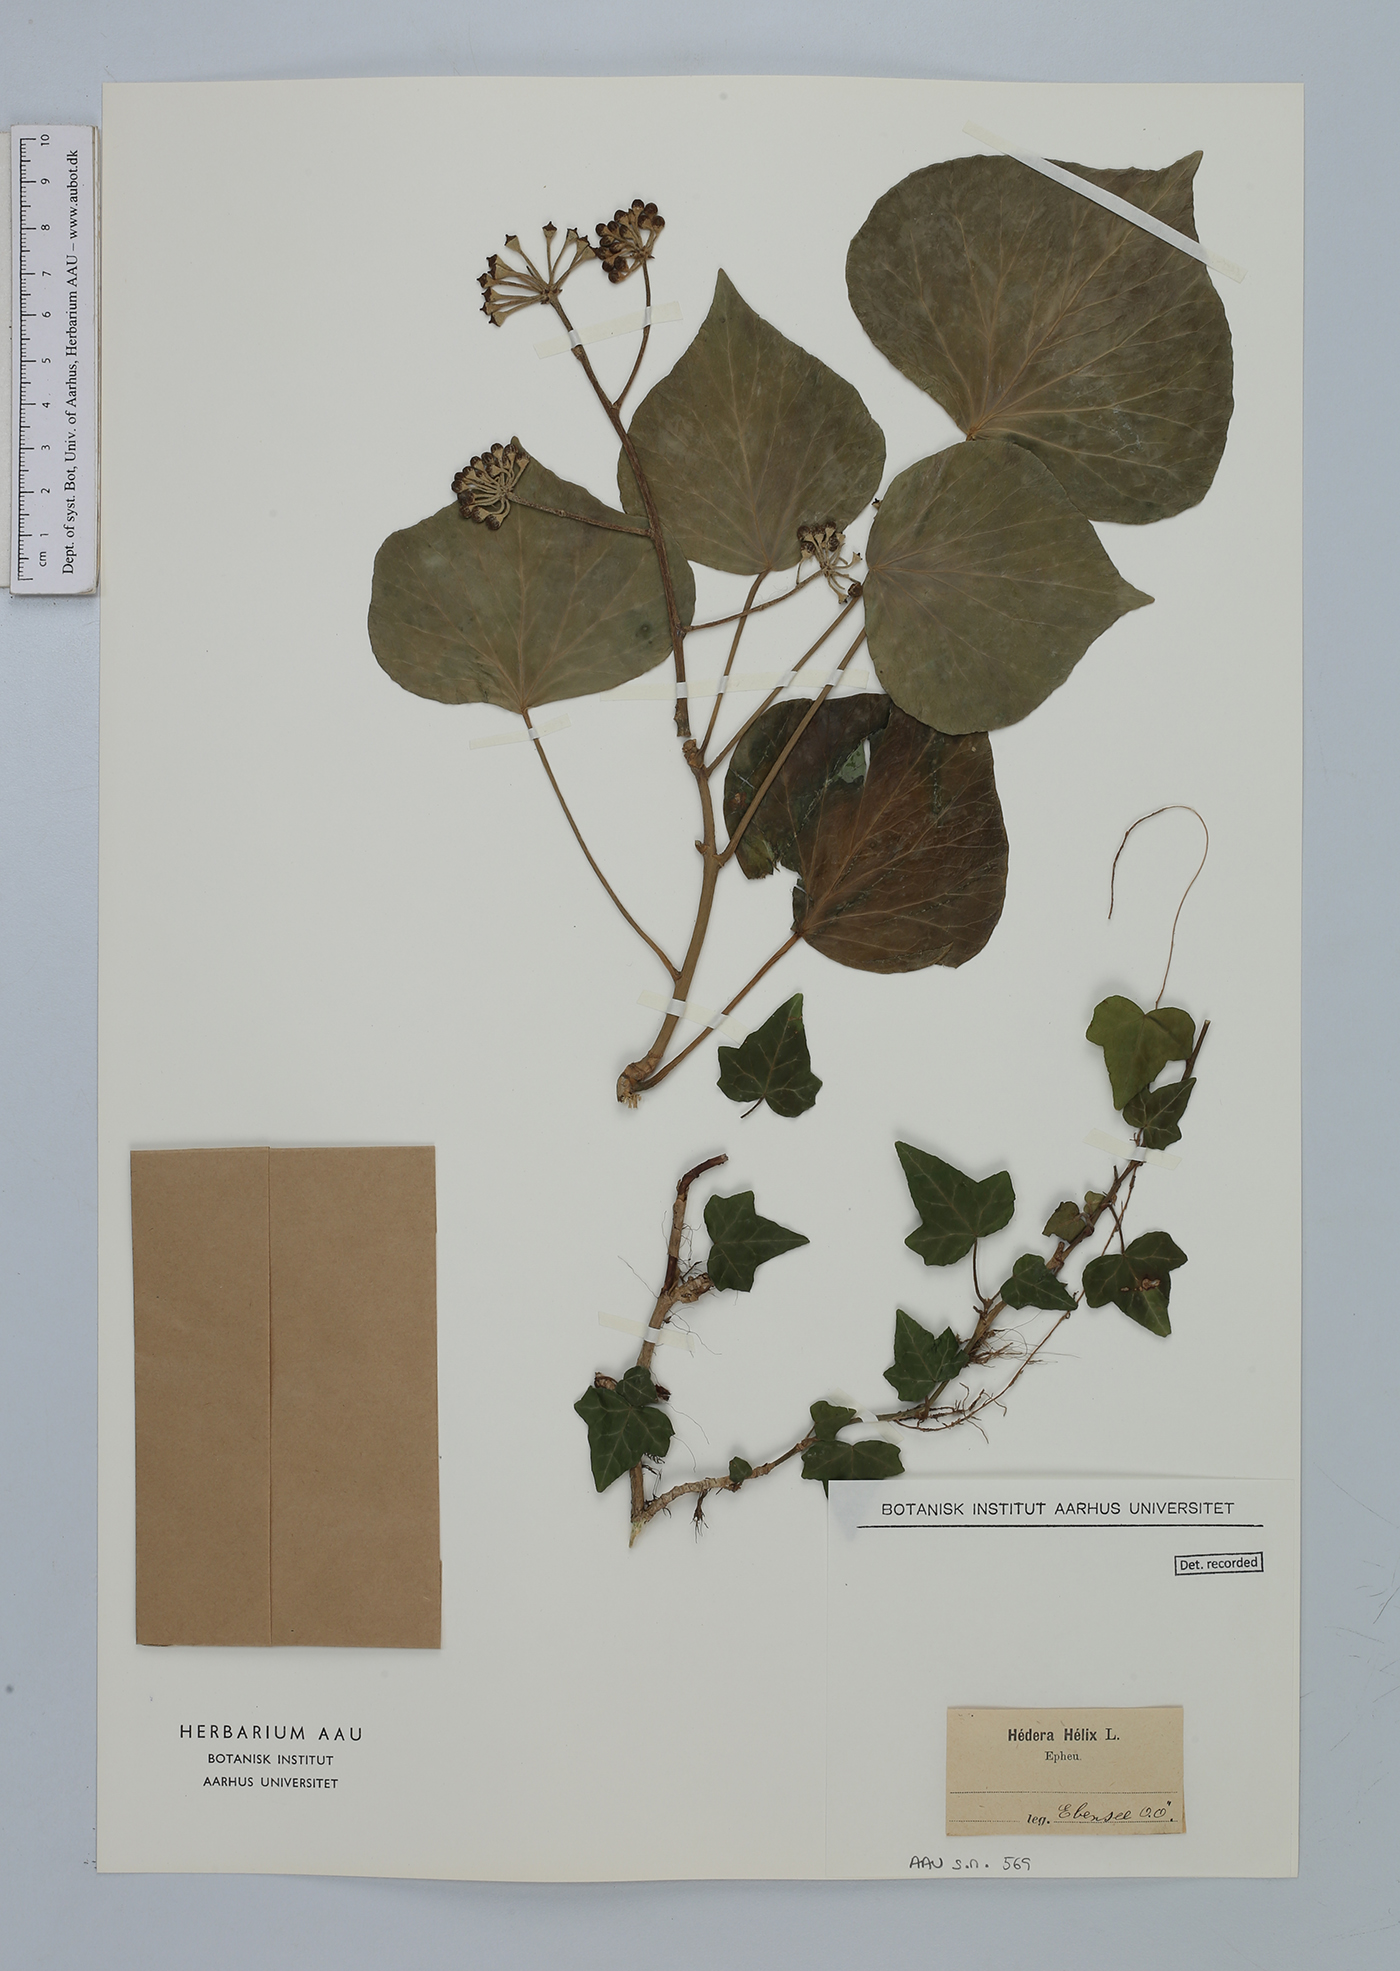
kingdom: Plantae
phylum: Tracheophyta
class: Magnoliopsida
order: Apiales
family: Araliaceae
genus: Hedera
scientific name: Hedera helix
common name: Ivy
